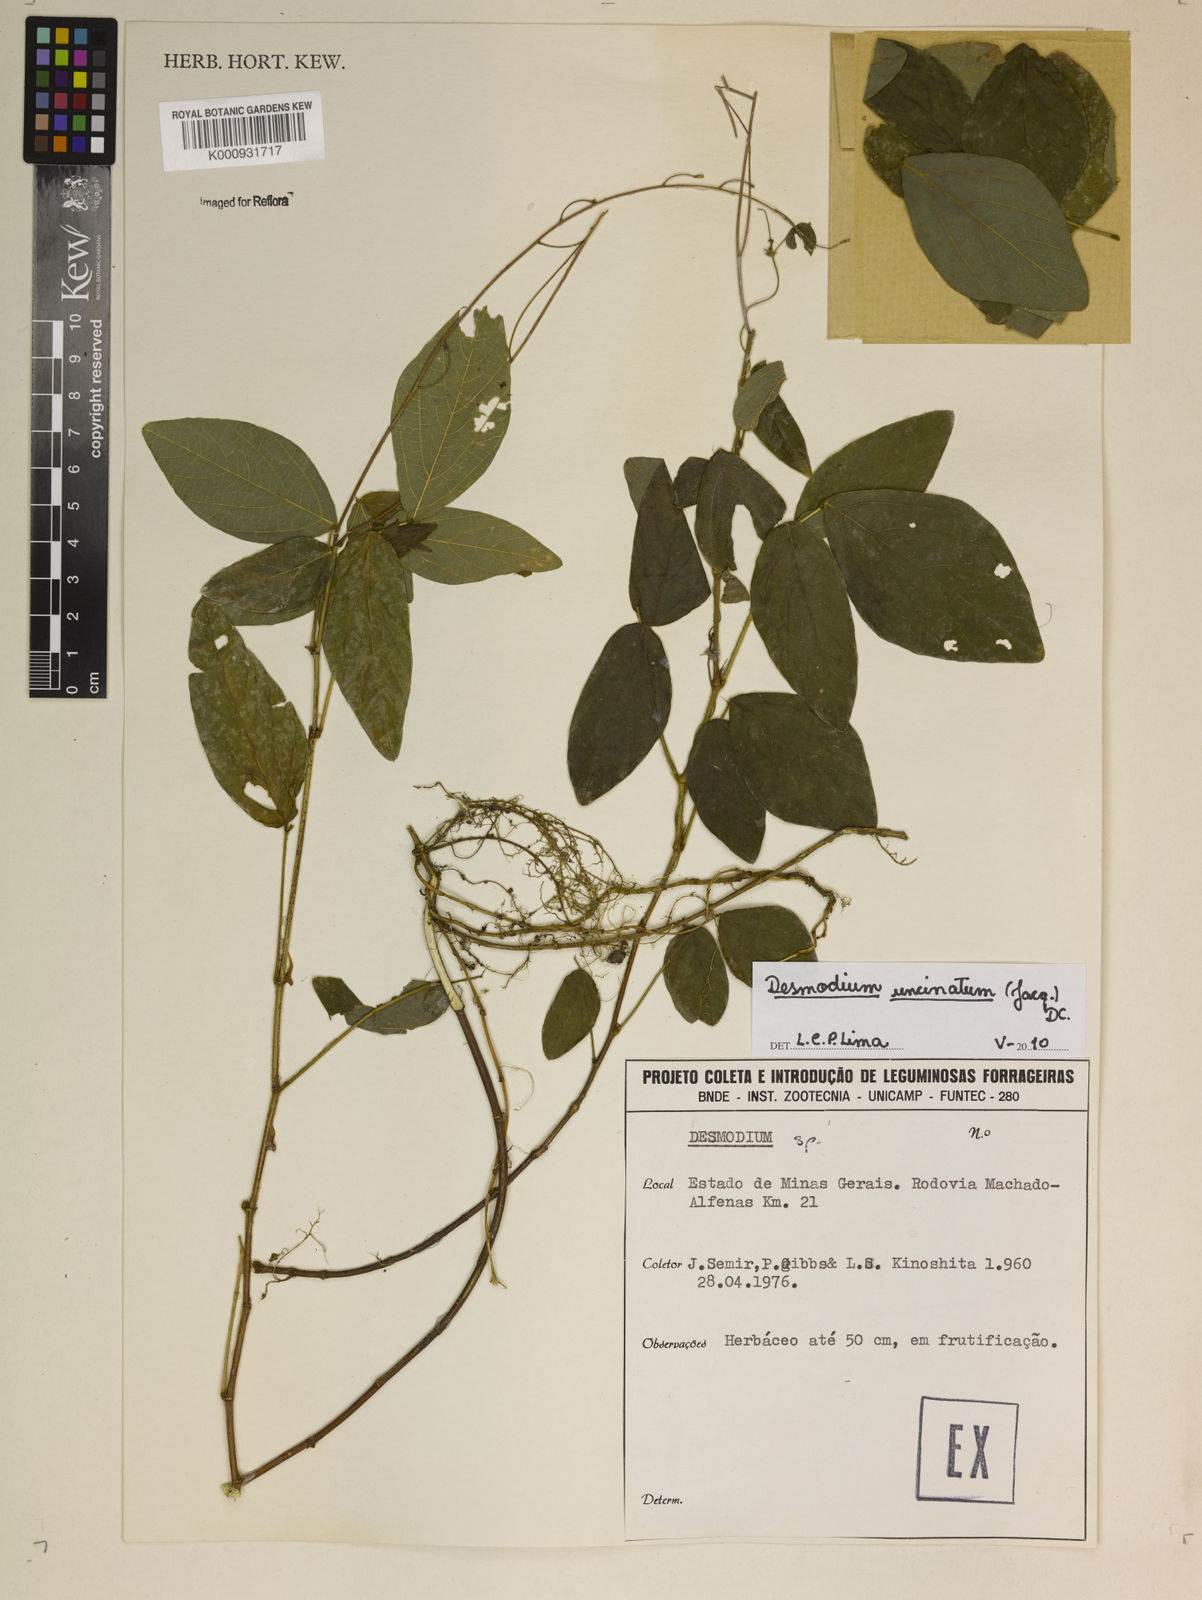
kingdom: Plantae
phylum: Tracheophyta
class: Magnoliopsida
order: Fabales
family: Fabaceae
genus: Desmodium
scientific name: Desmodium uncinatum
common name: Silverleaf desmodium
